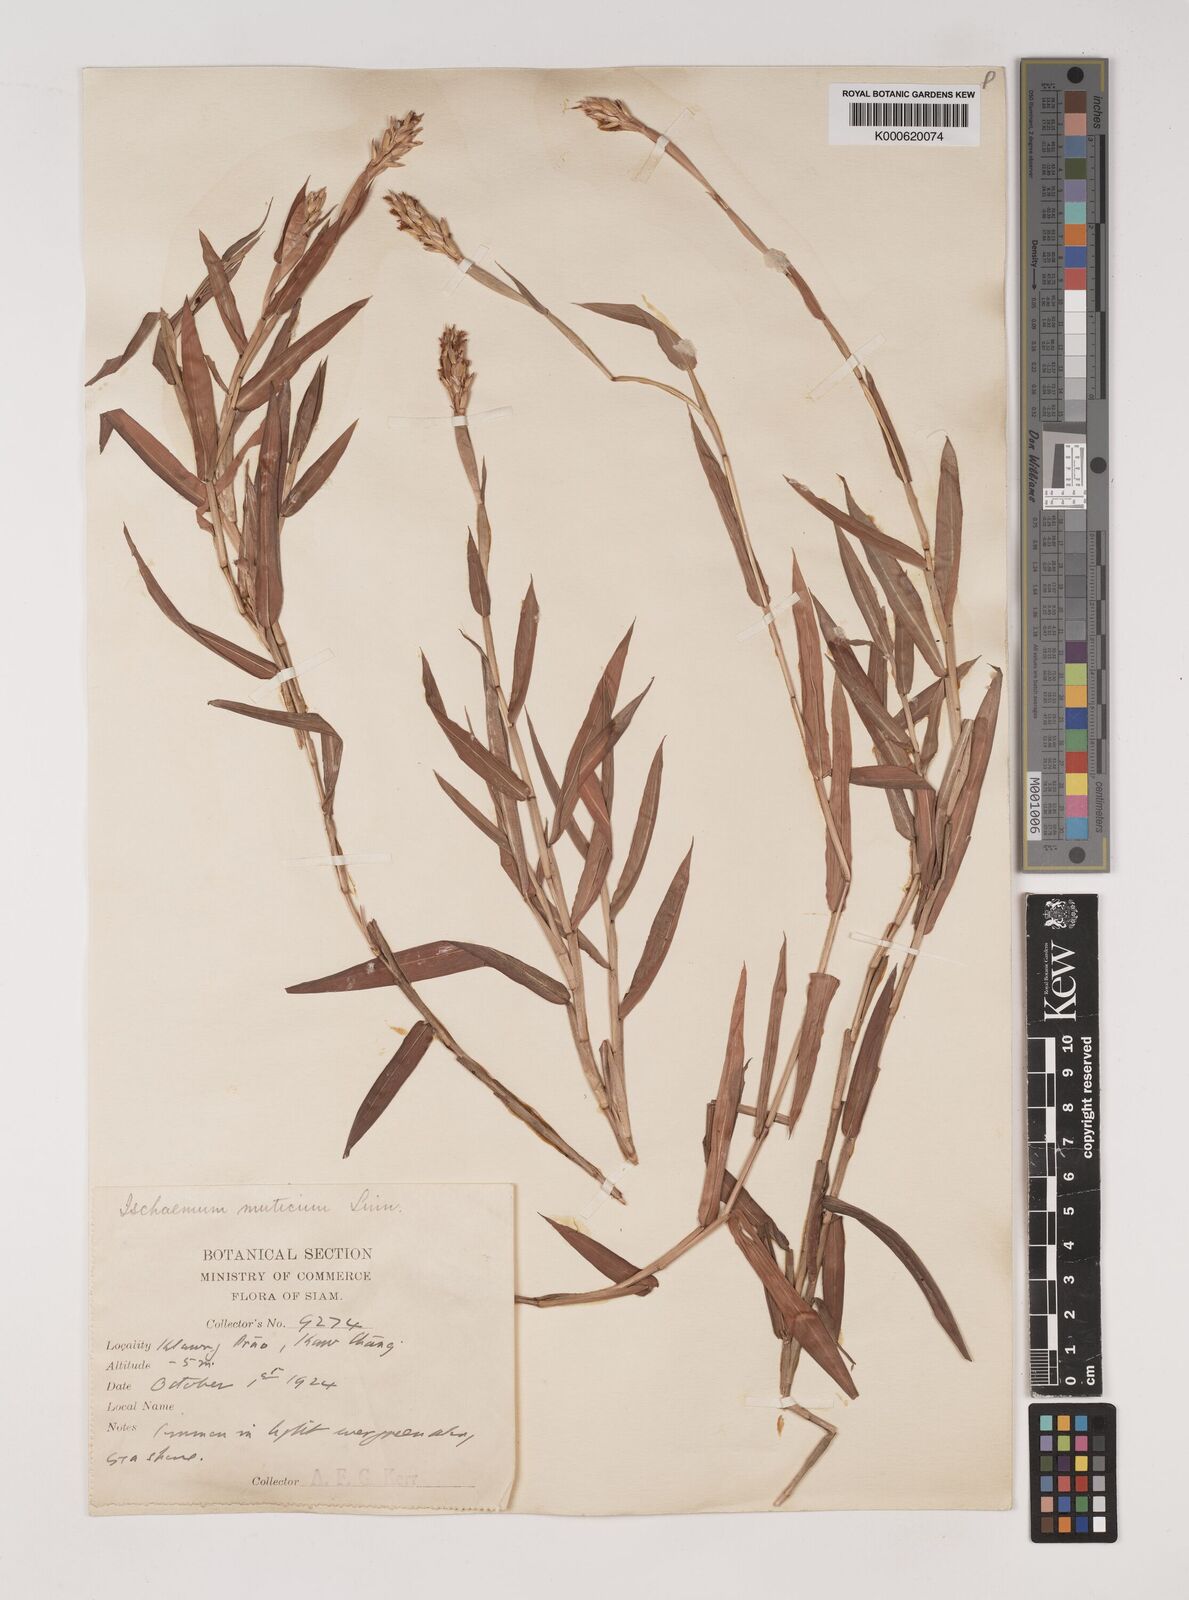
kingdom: Plantae
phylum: Tracheophyta
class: Liliopsida
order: Poales
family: Poaceae
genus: Ischaemum
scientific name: Ischaemum muticum
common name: Drought grass
